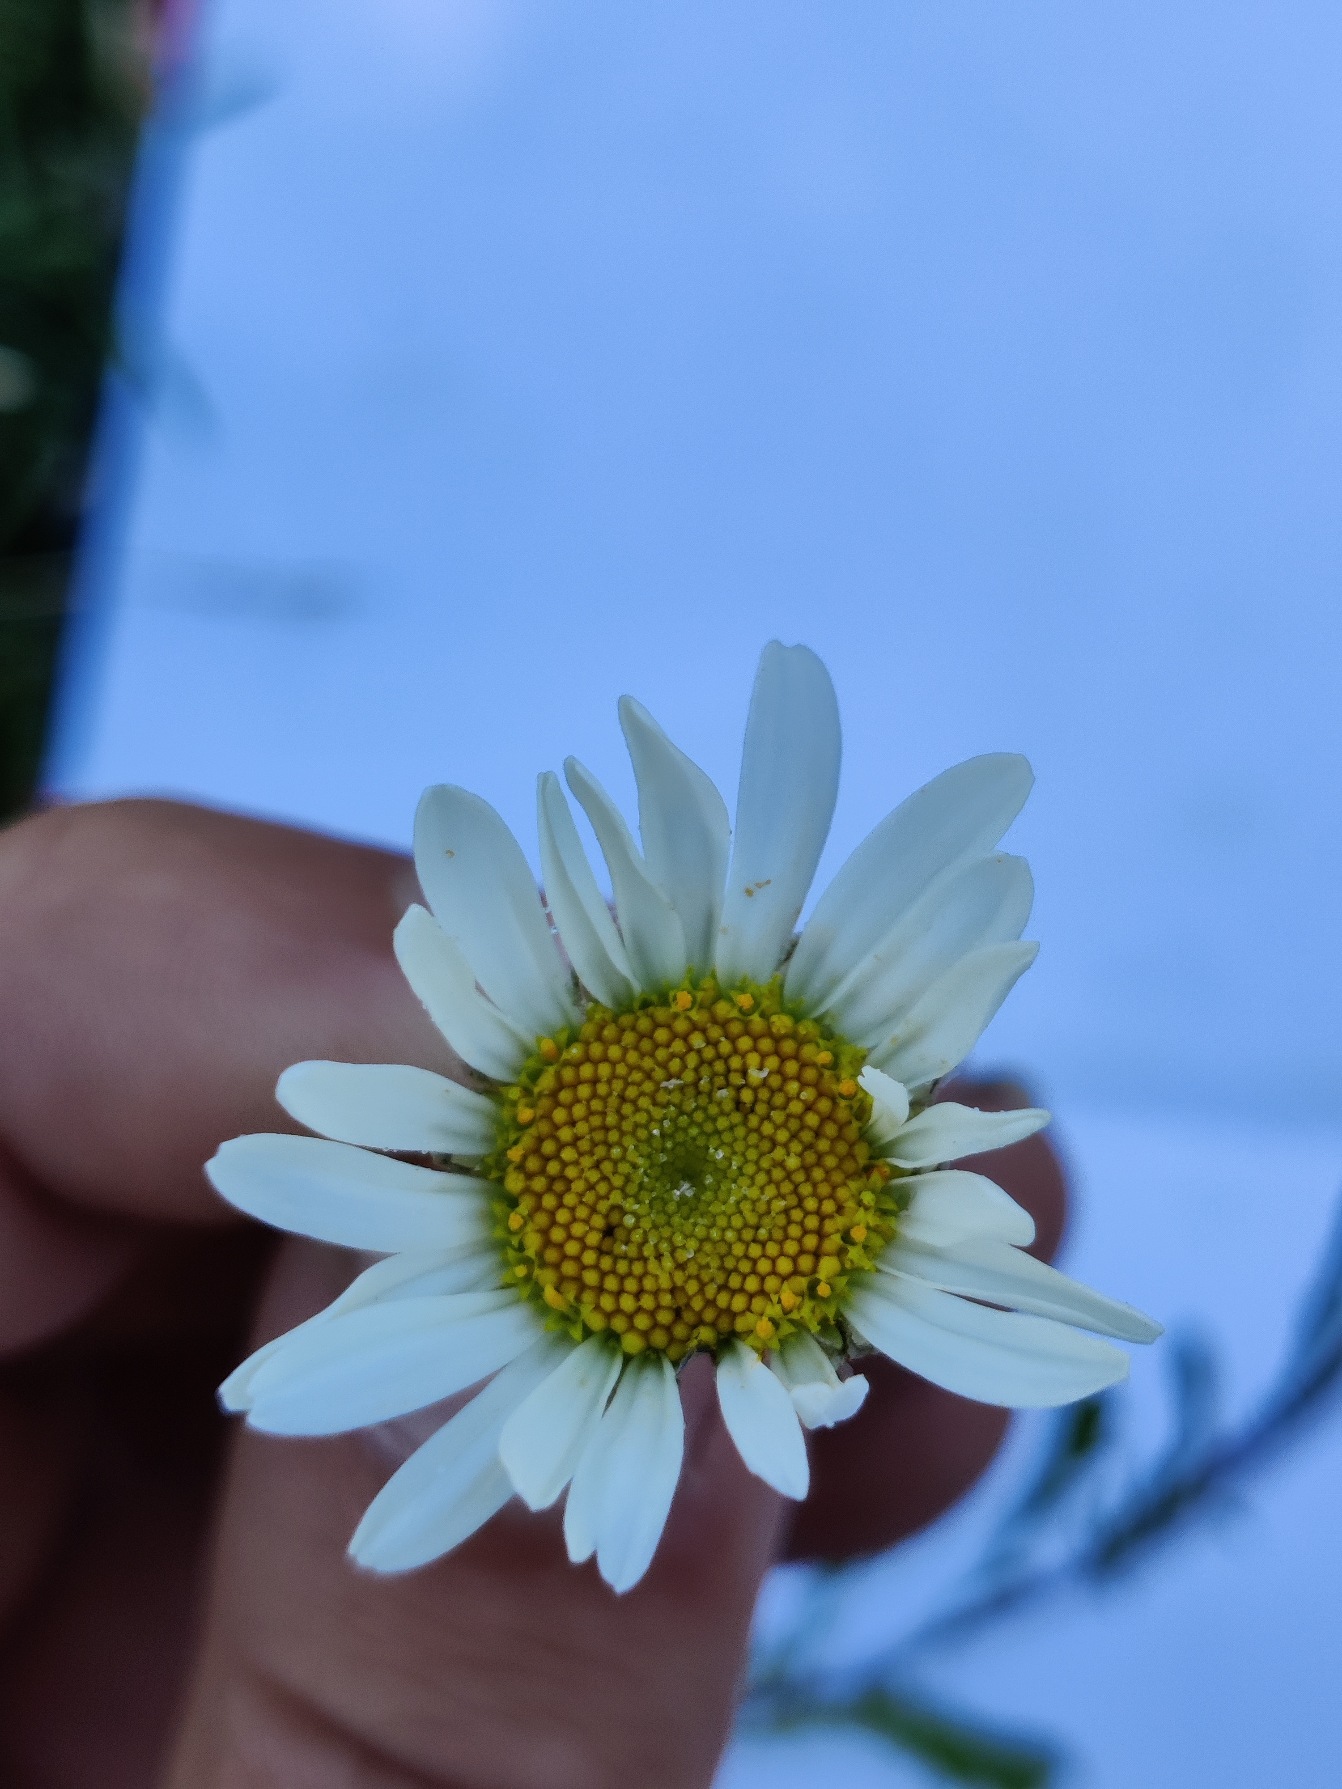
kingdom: Plantae
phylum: Tracheophyta
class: Magnoliopsida
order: Asterales
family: Asteraceae
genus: Leucanthemum
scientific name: Leucanthemum vulgare
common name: Hvid okseøje
